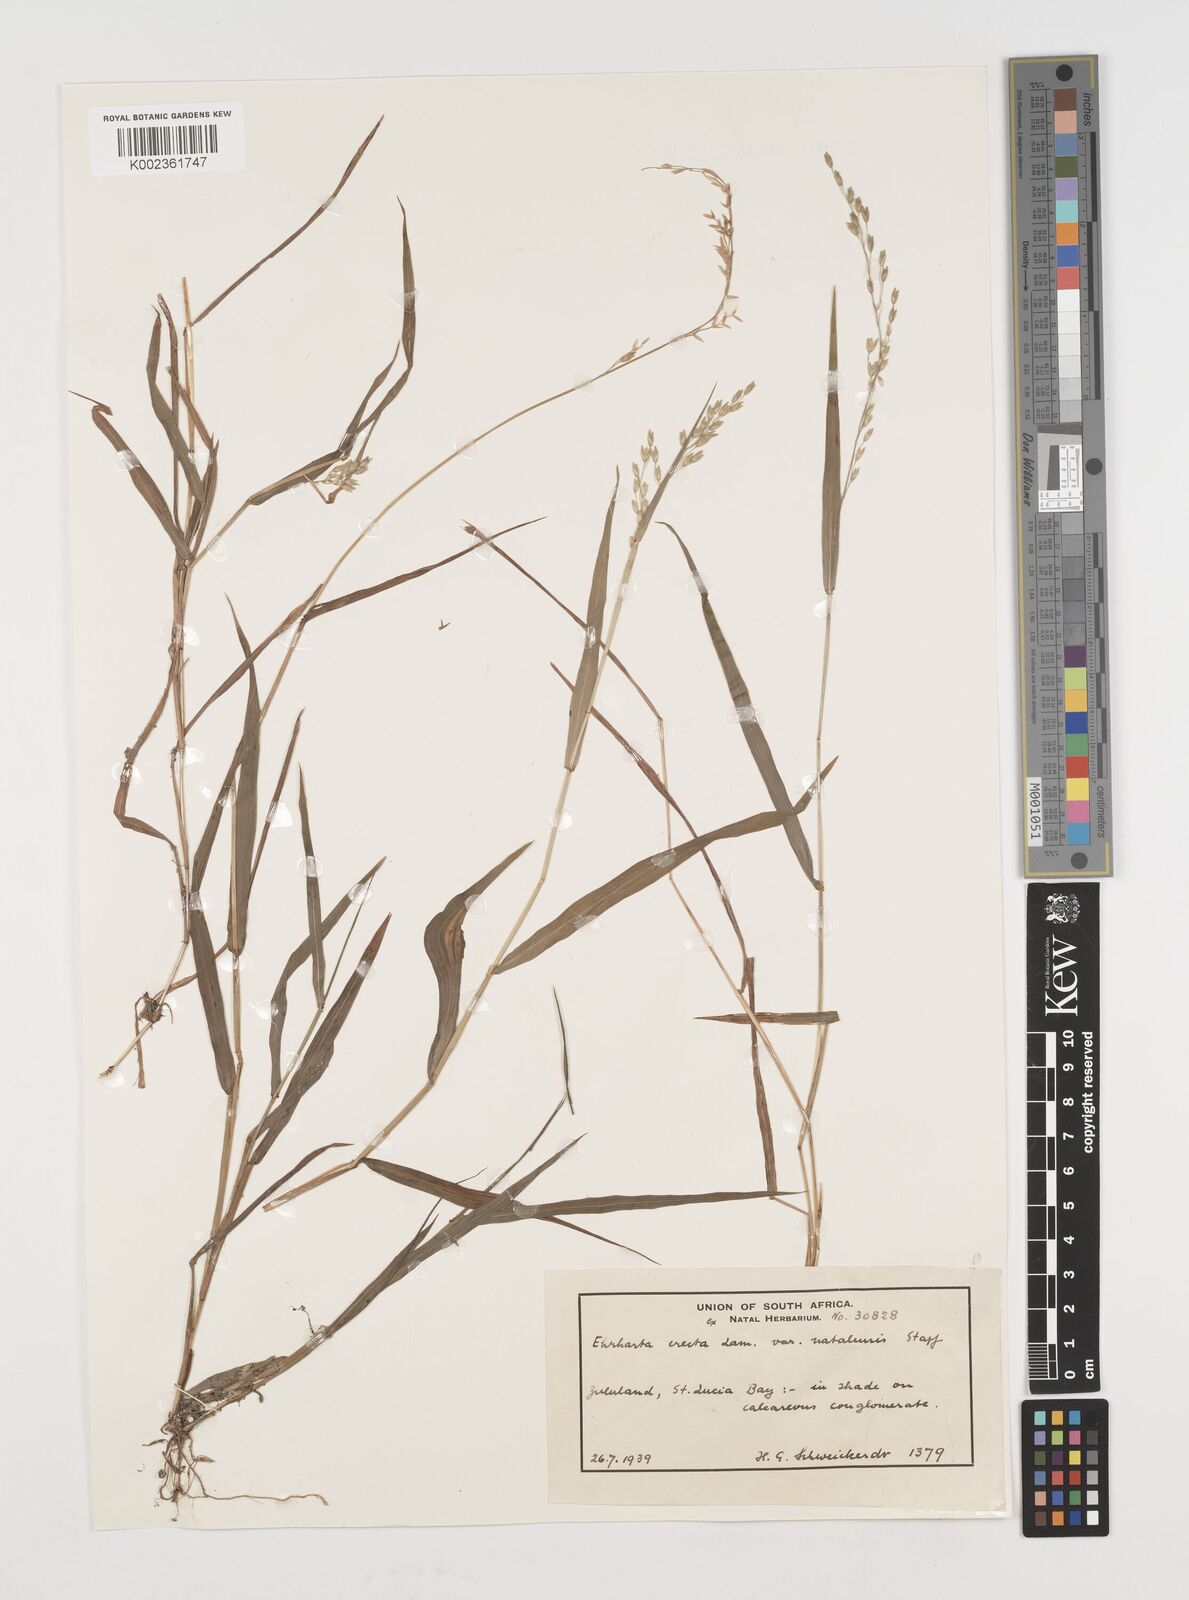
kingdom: Plantae
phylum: Tracheophyta
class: Liliopsida
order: Poales
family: Poaceae
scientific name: Poaceae
